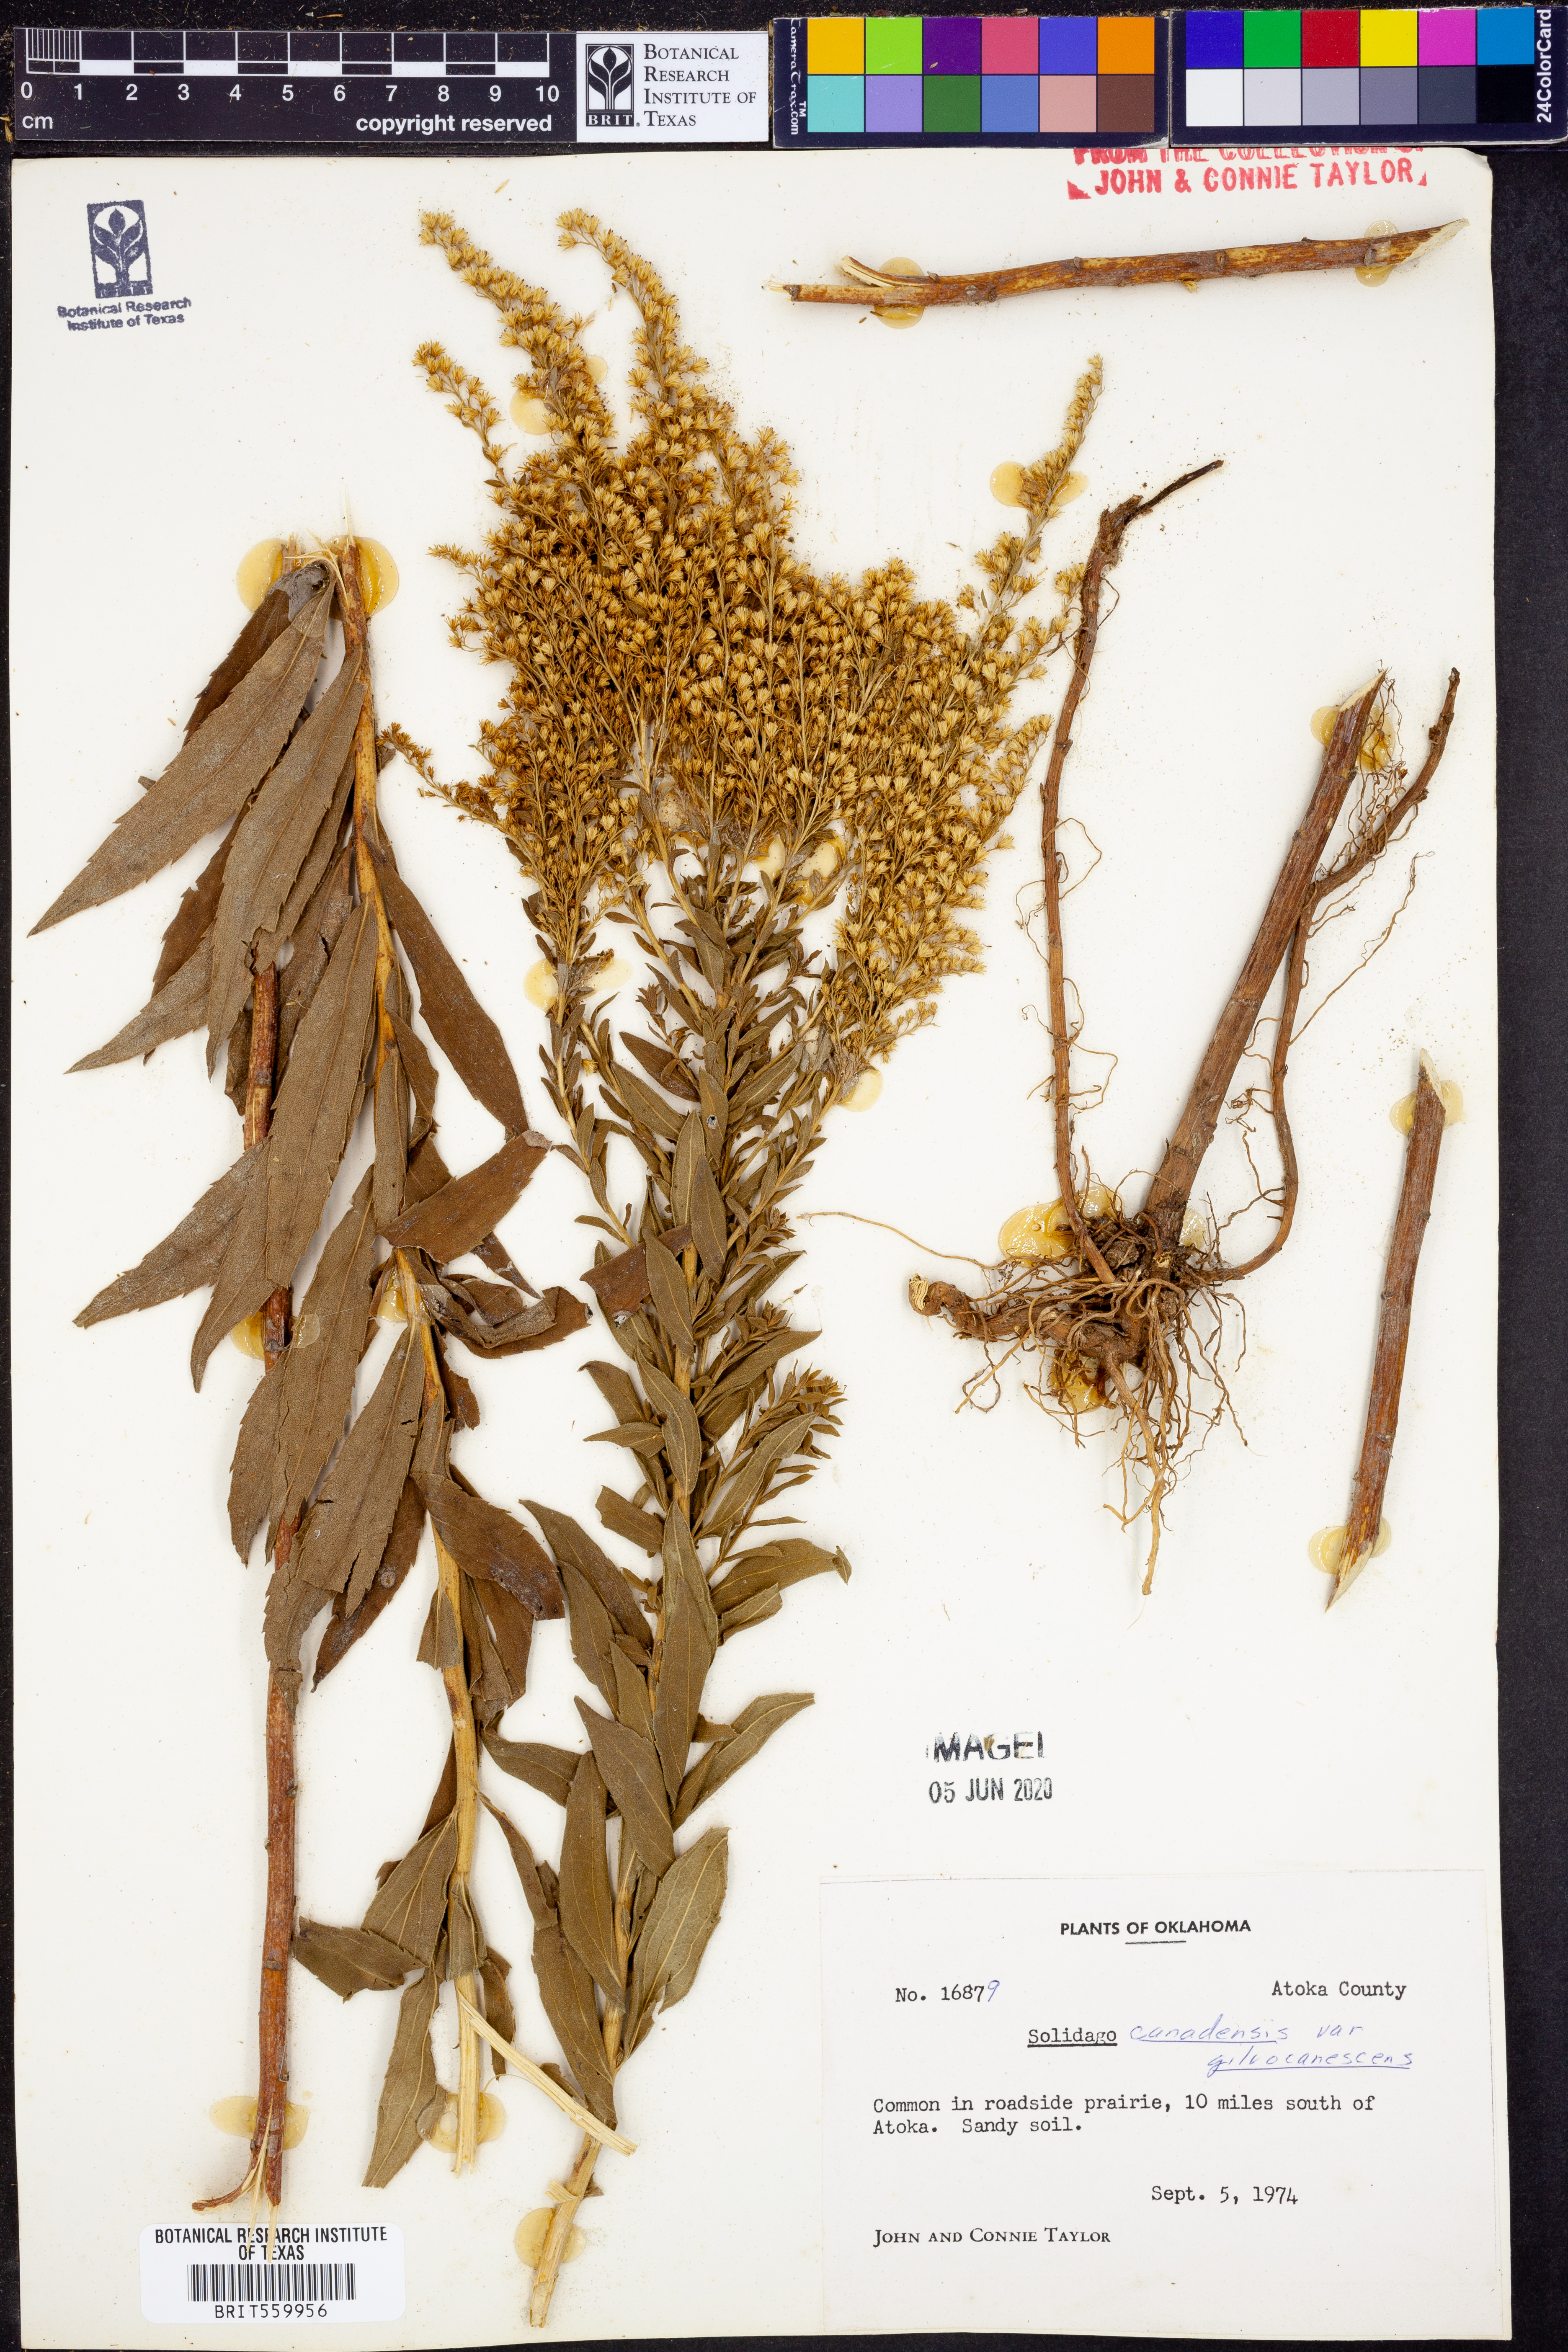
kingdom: Plantae
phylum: Tracheophyta
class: Magnoliopsida
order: Asterales
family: Asteraceae
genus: Solidago
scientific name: Solidago altissima
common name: Late goldenrod
